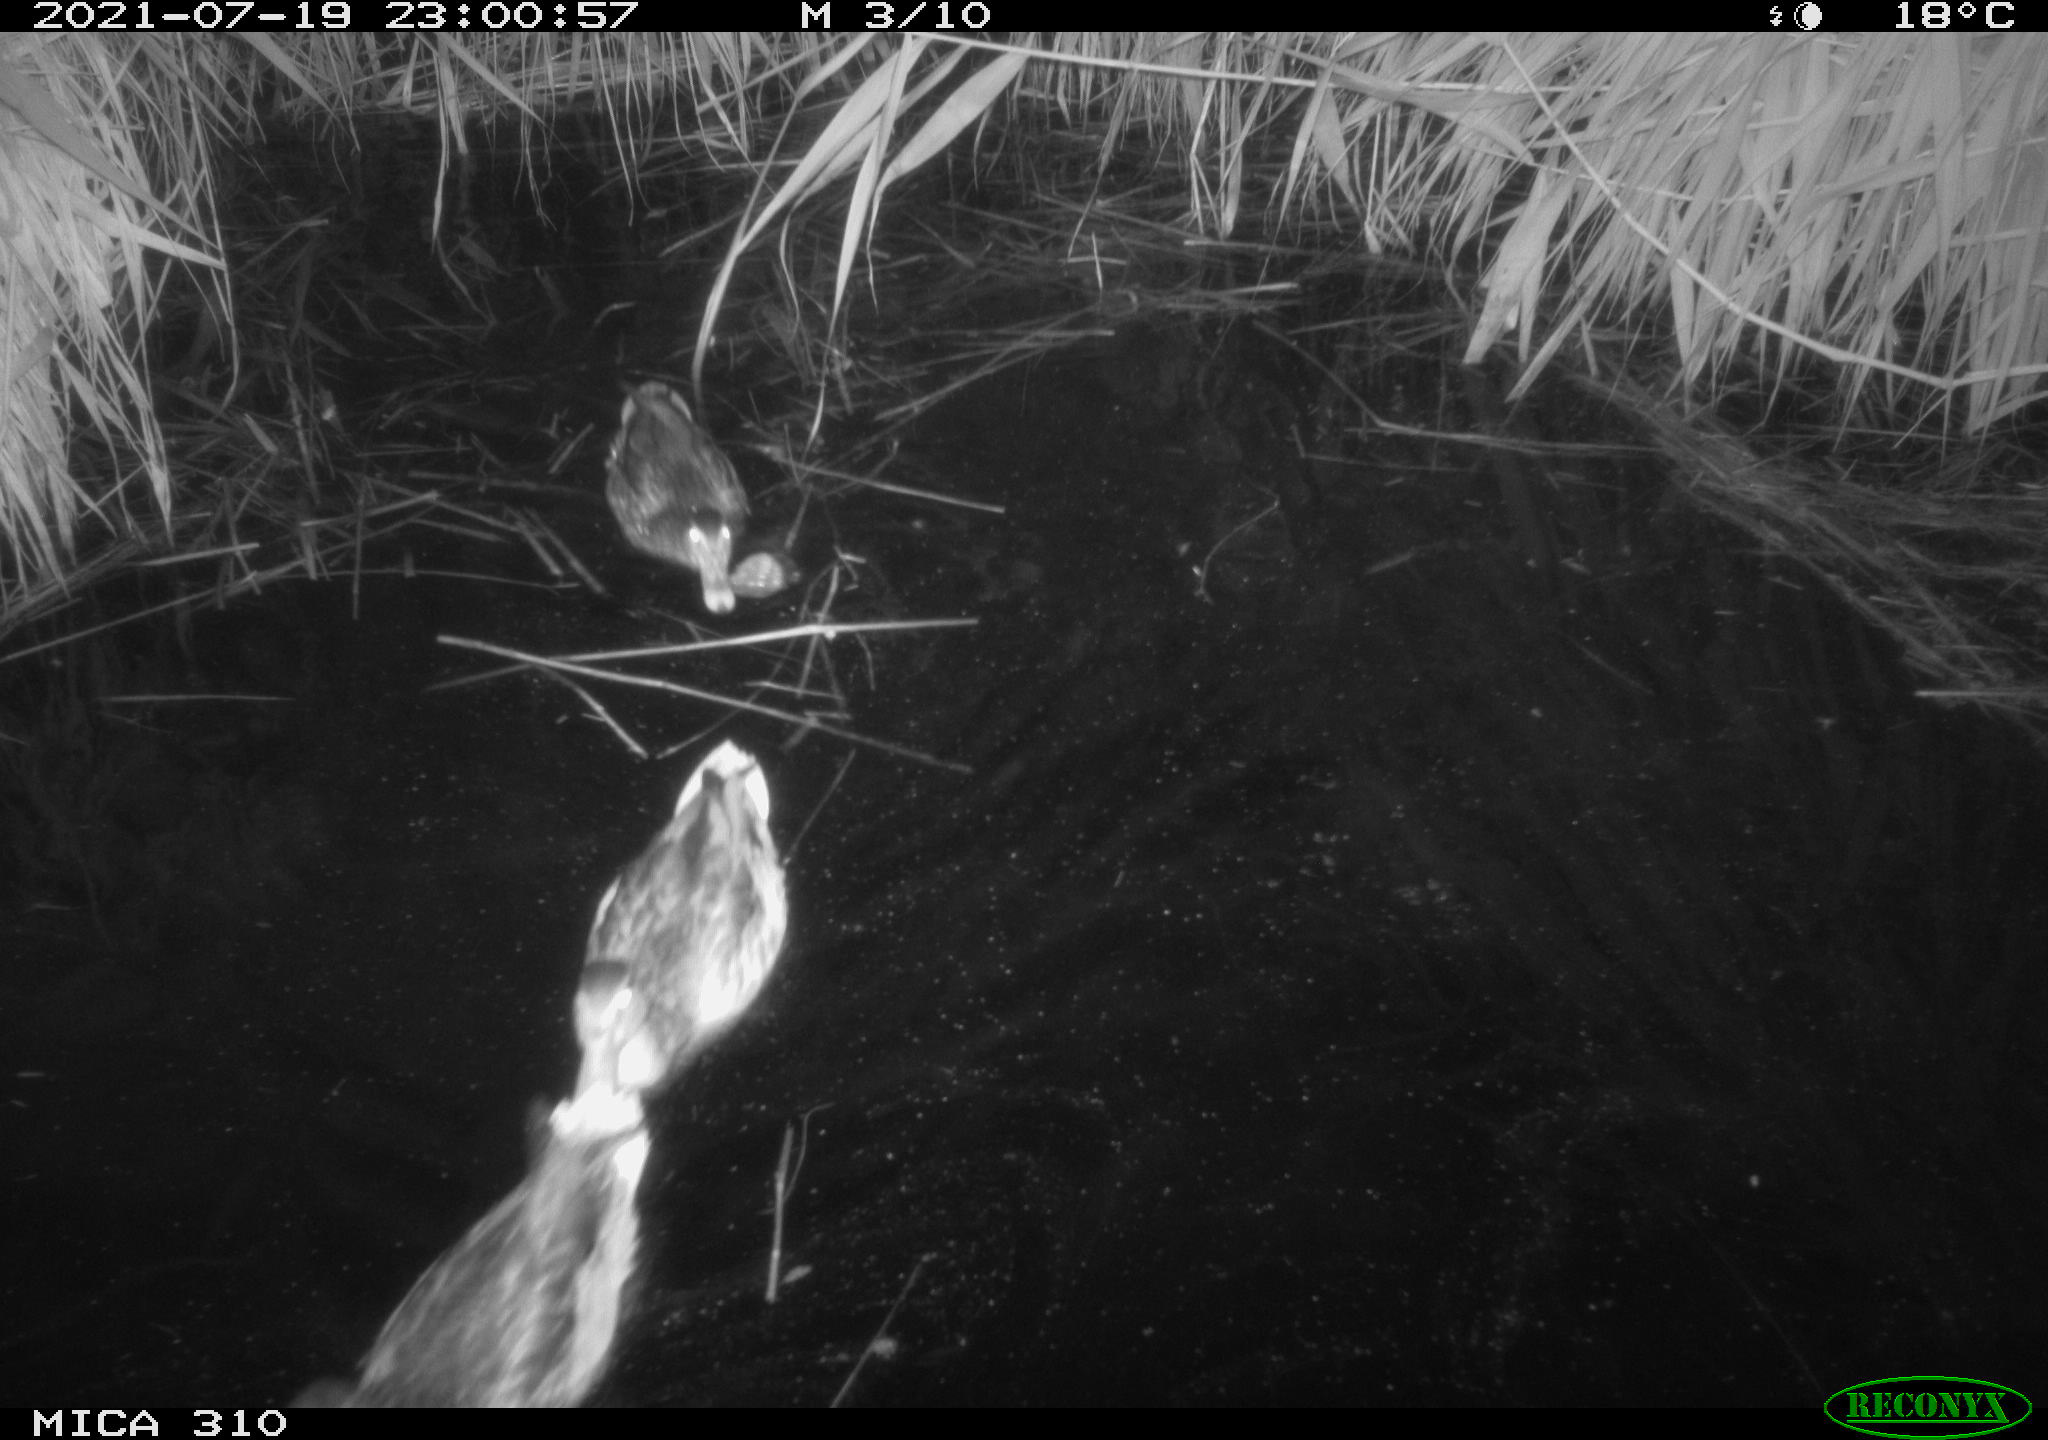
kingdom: Animalia
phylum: Chordata
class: Aves
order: Anseriformes
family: Anatidae
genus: Anas
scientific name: Anas platyrhynchos
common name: Mallard
